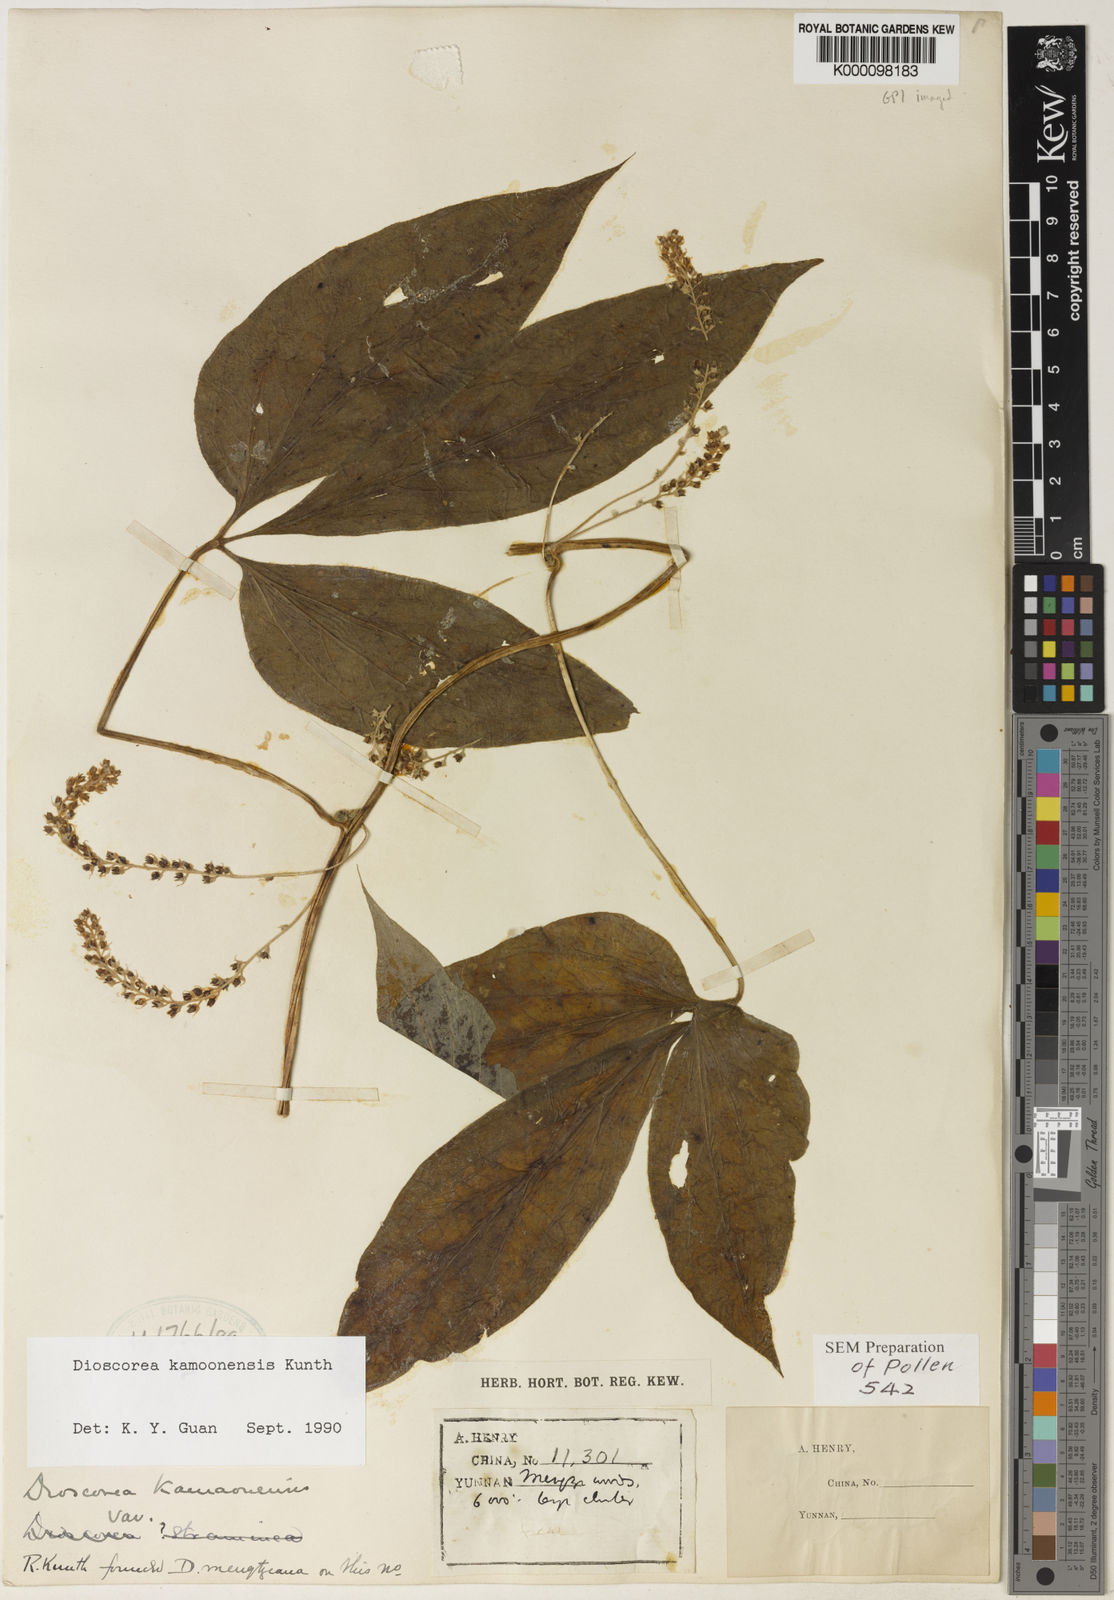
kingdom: Plantae
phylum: Tracheophyta
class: Liliopsida
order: Dioscoreales
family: Dioscoreaceae
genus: Dioscorea
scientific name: Dioscorea kamoonensis
